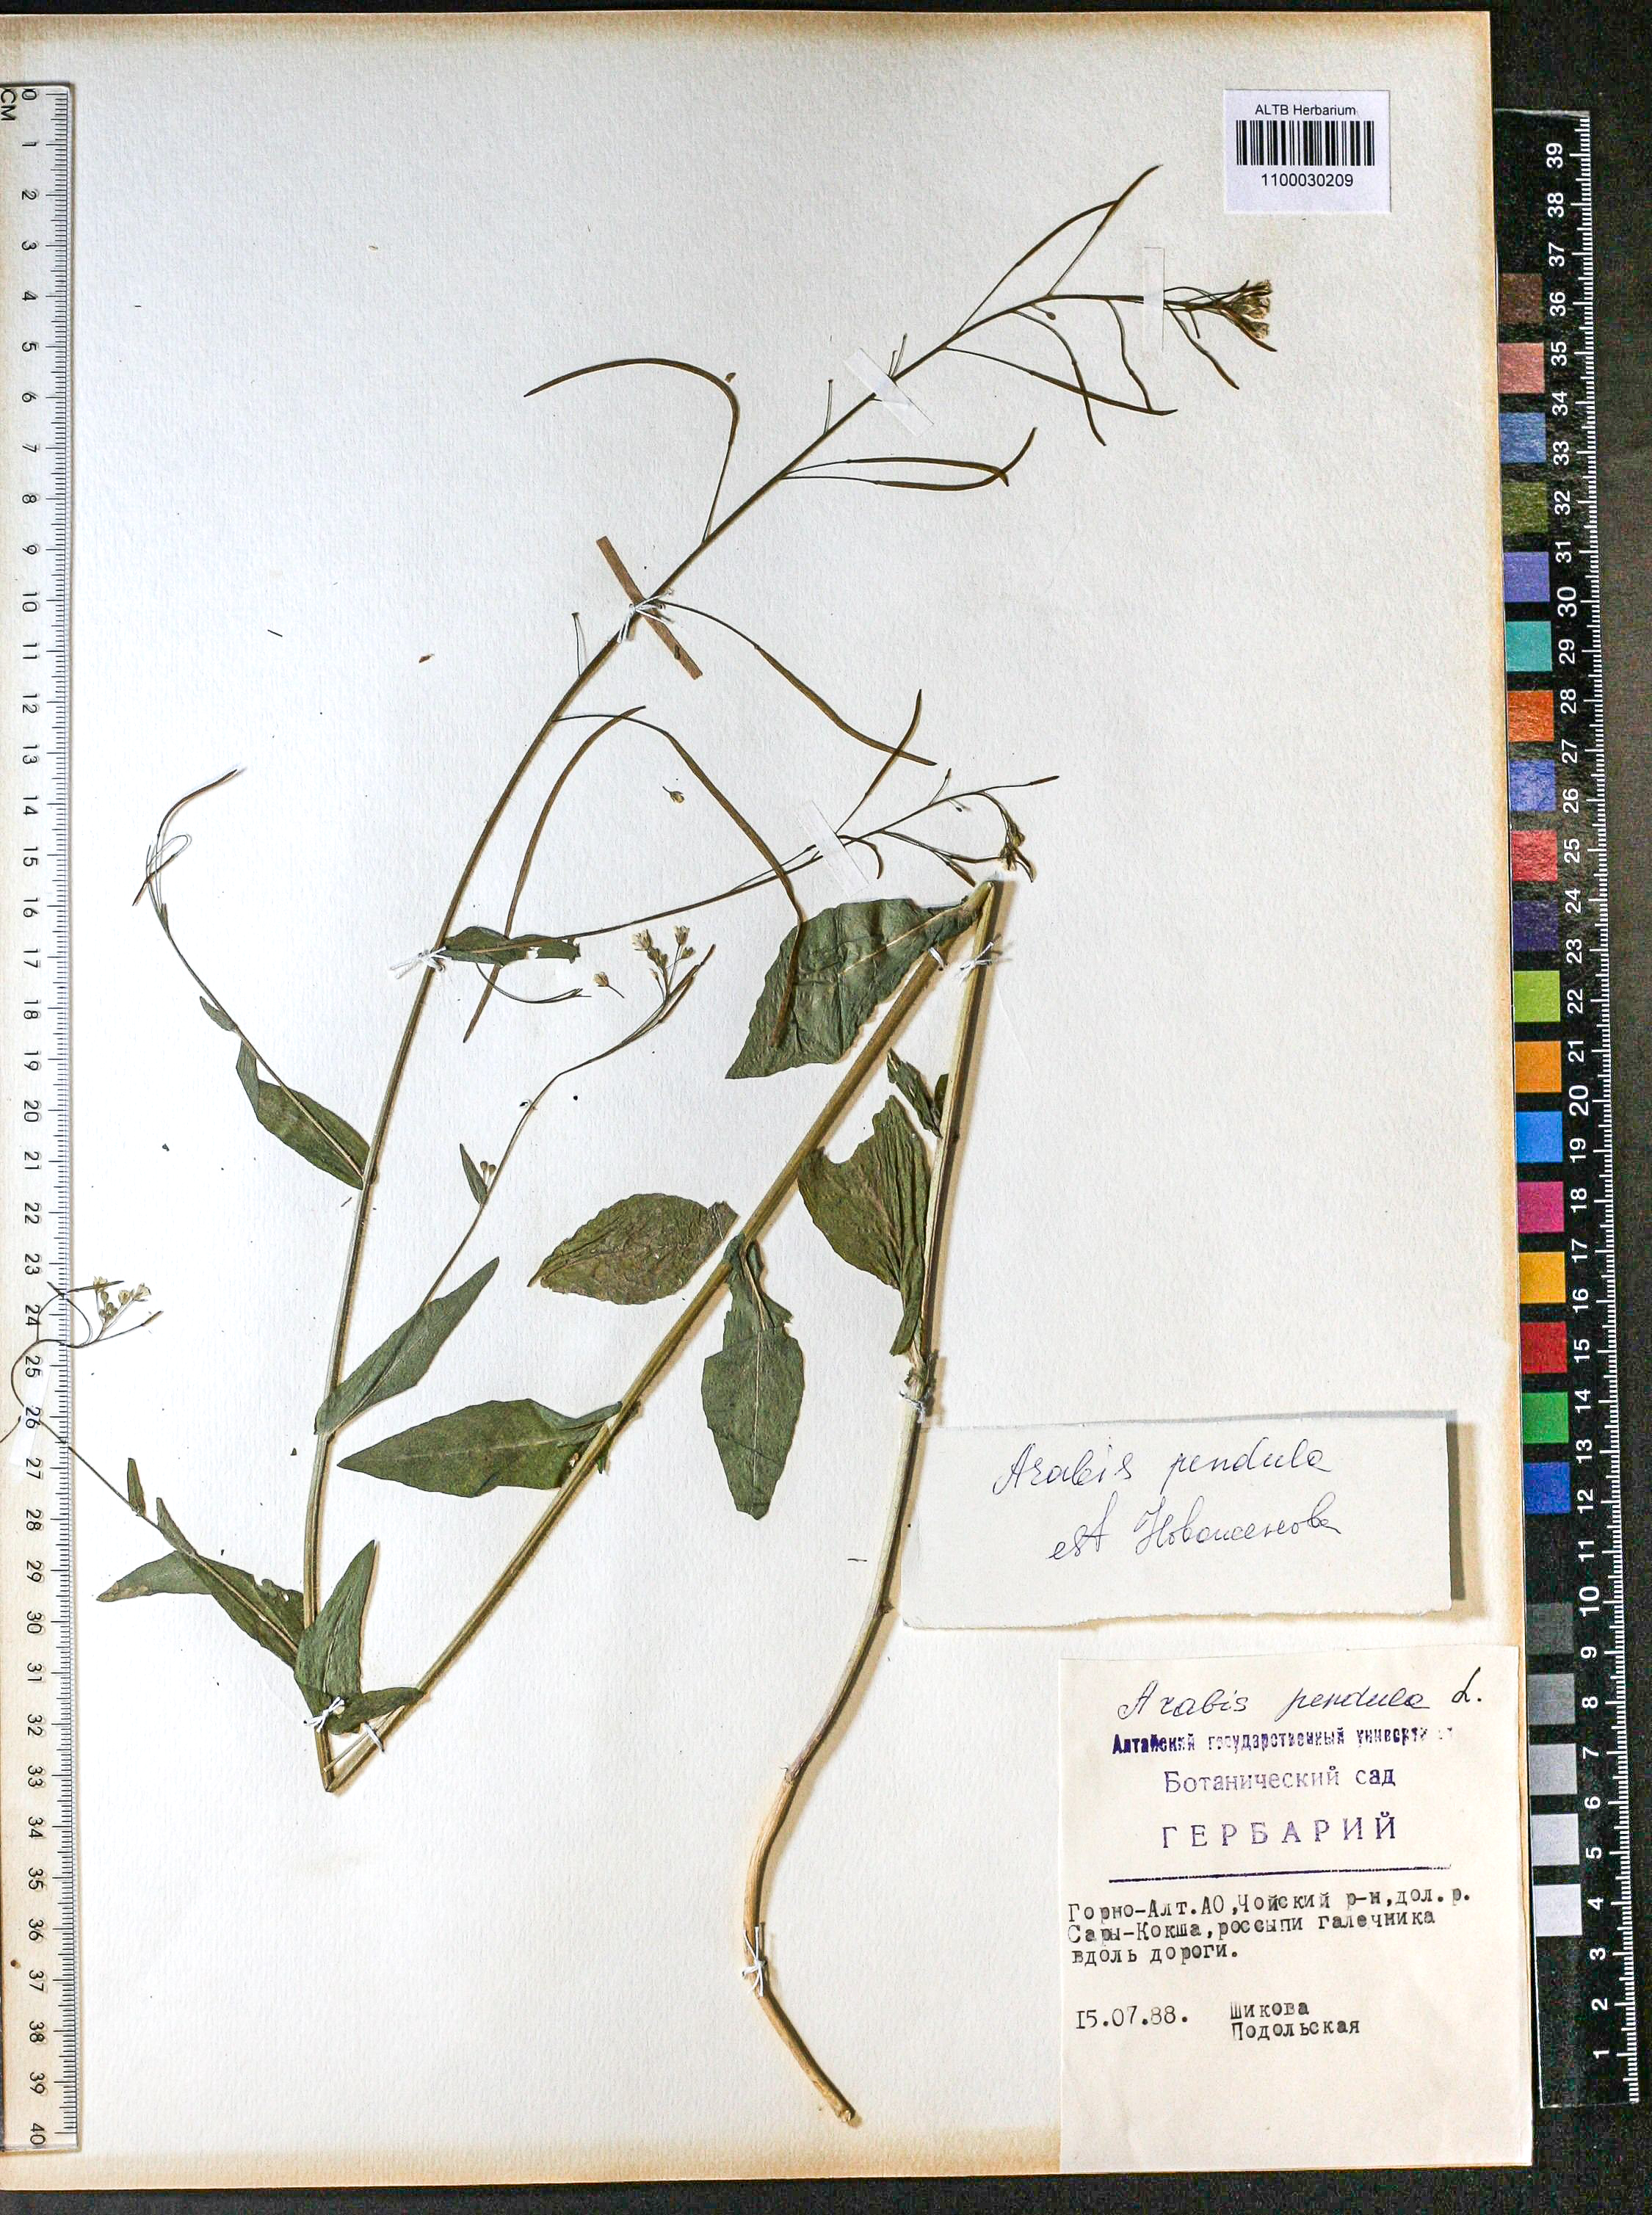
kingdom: Plantae
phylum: Tracheophyta
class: Magnoliopsida
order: Brassicales
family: Brassicaceae
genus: Catolobus
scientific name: Catolobus pendulus
